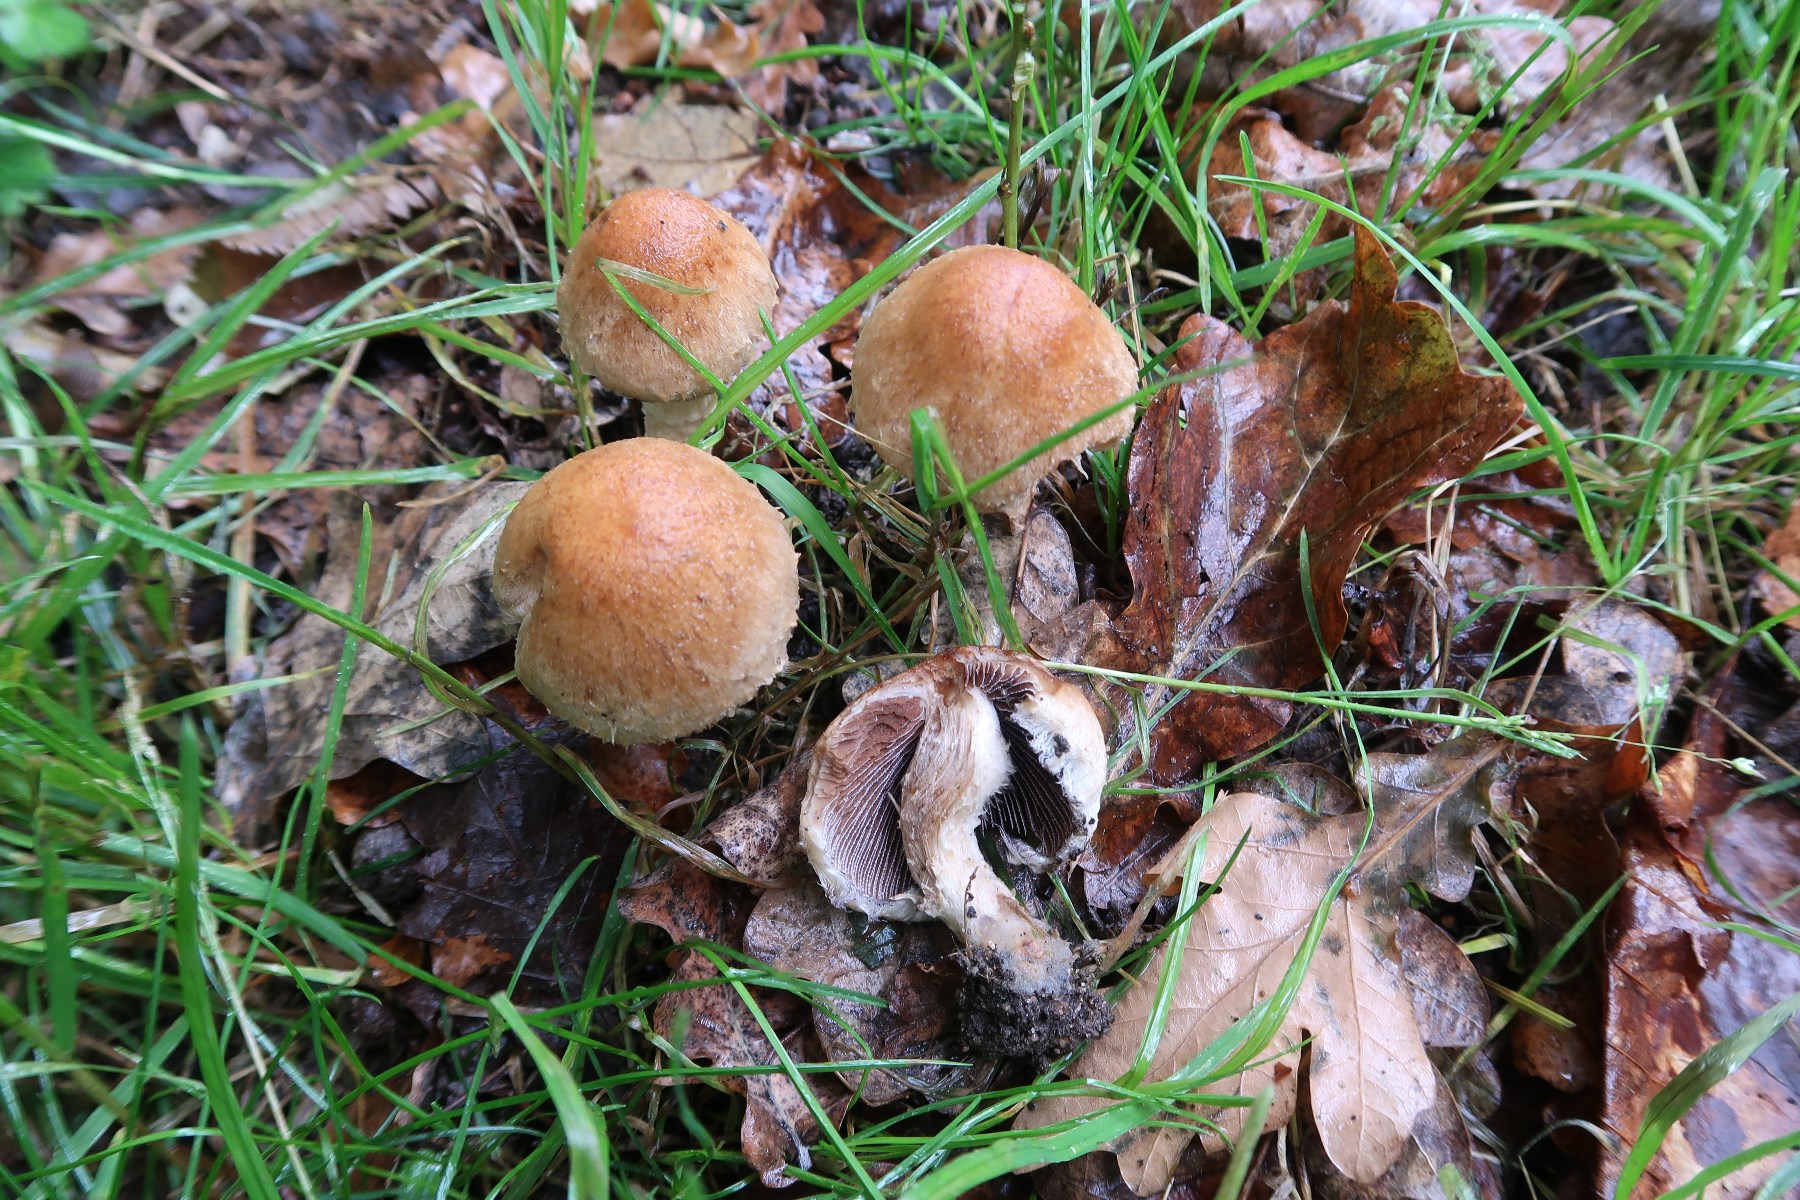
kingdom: Fungi
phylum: Basidiomycota
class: Agaricomycetes
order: Agaricales
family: Psathyrellaceae
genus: Lacrymaria
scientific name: Lacrymaria lacrymabunda
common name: grædende mørkhat
